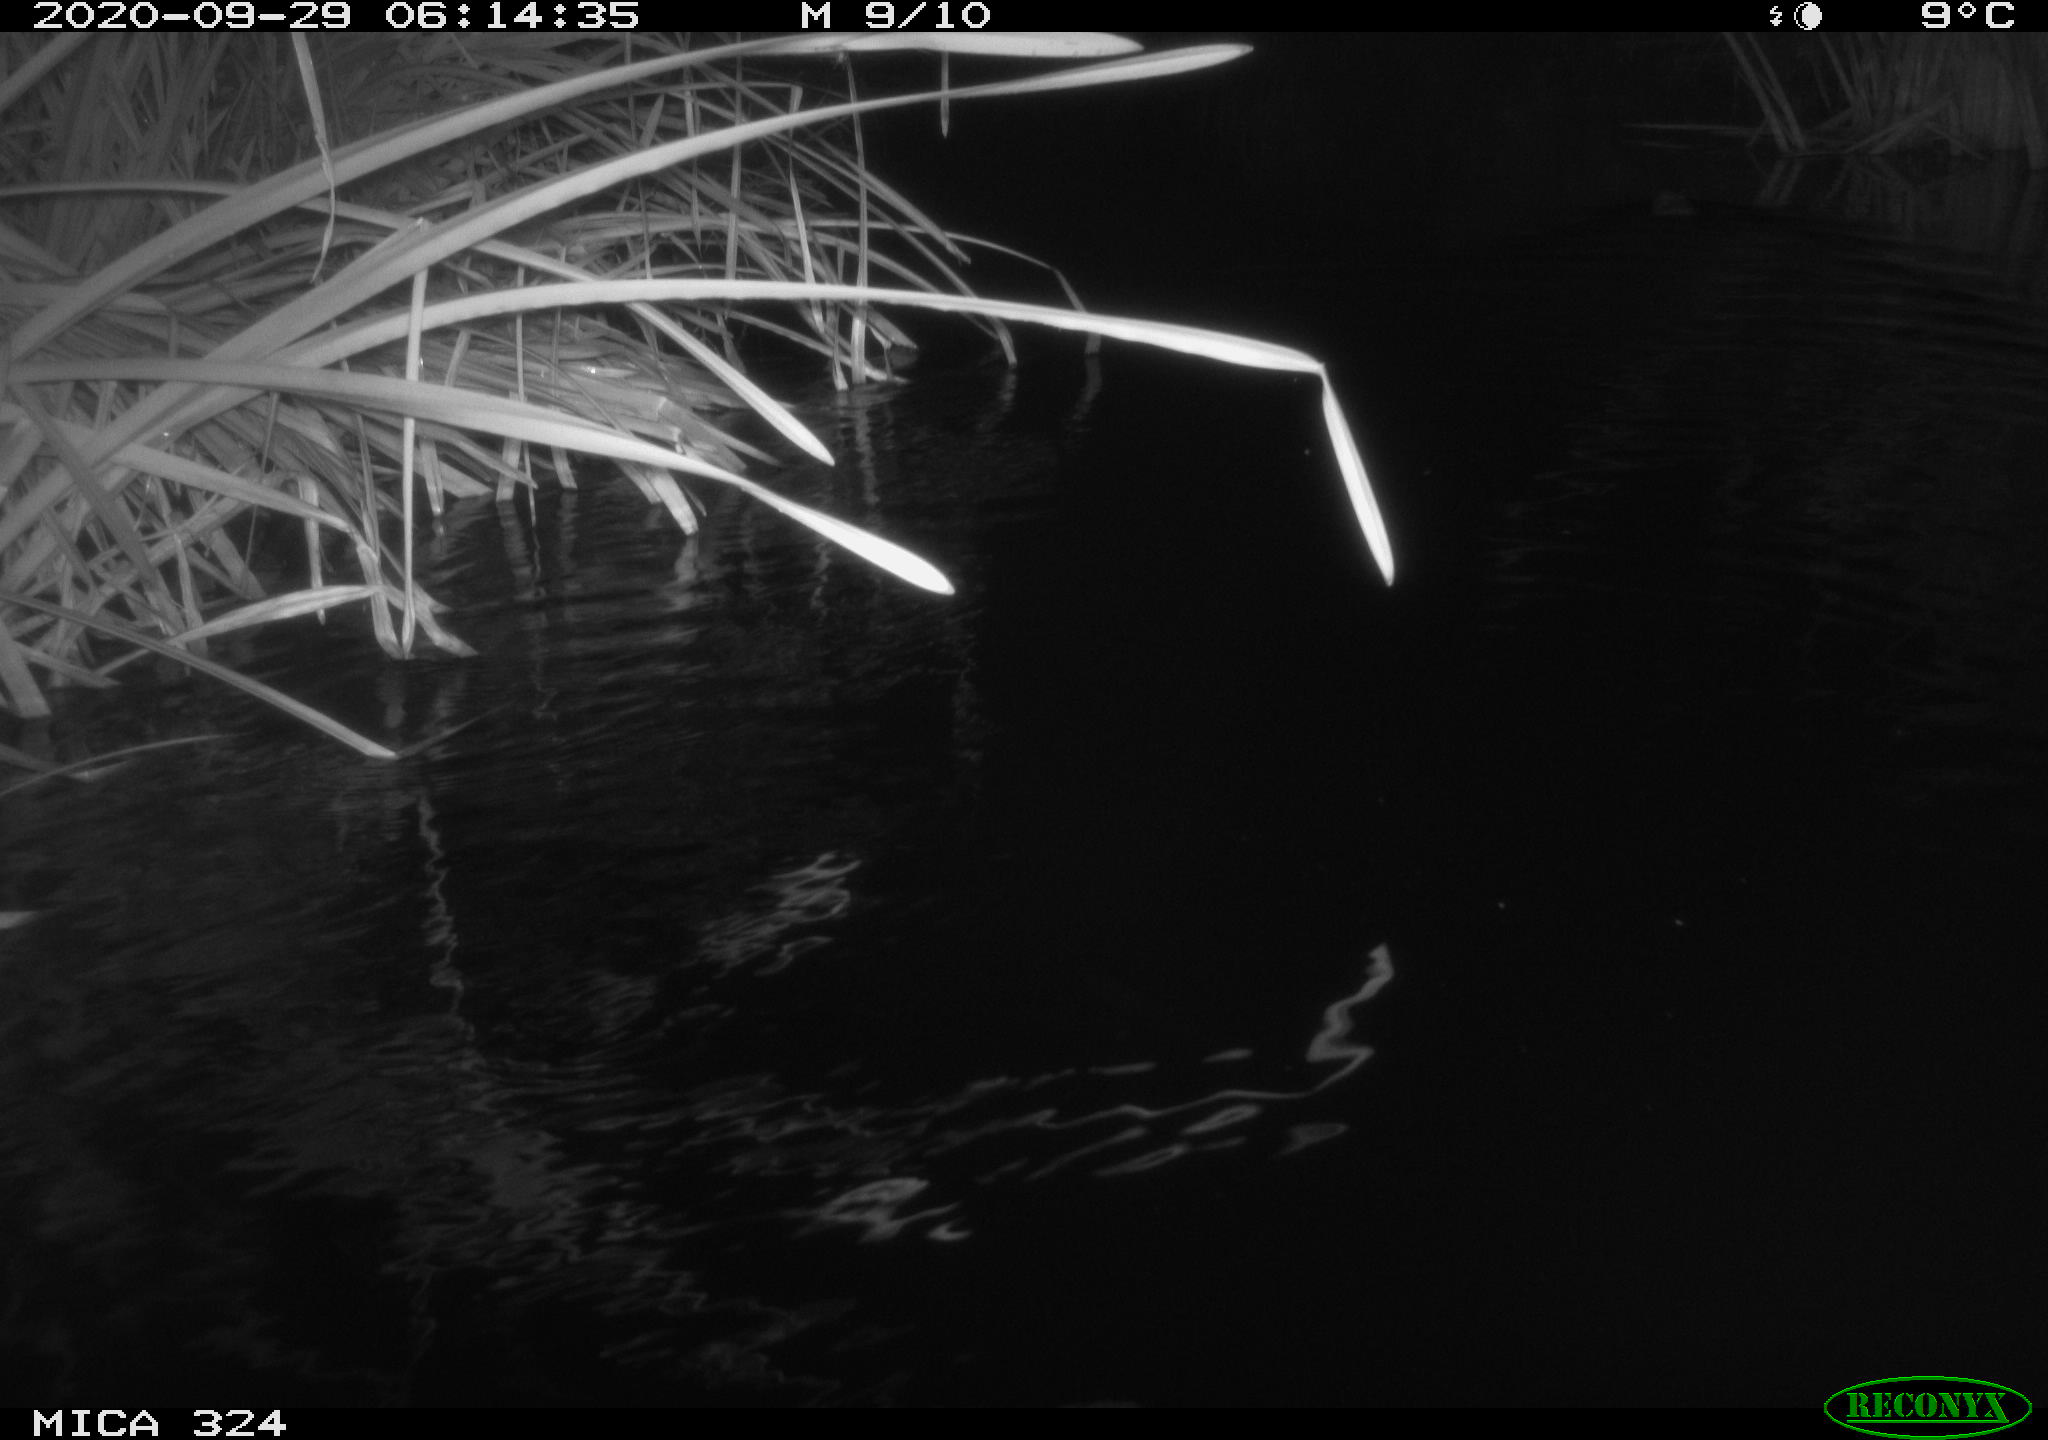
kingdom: Animalia
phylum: Chordata
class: Mammalia
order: Rodentia
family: Cricetidae
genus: Ondatra
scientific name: Ondatra zibethicus
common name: Muskrat
